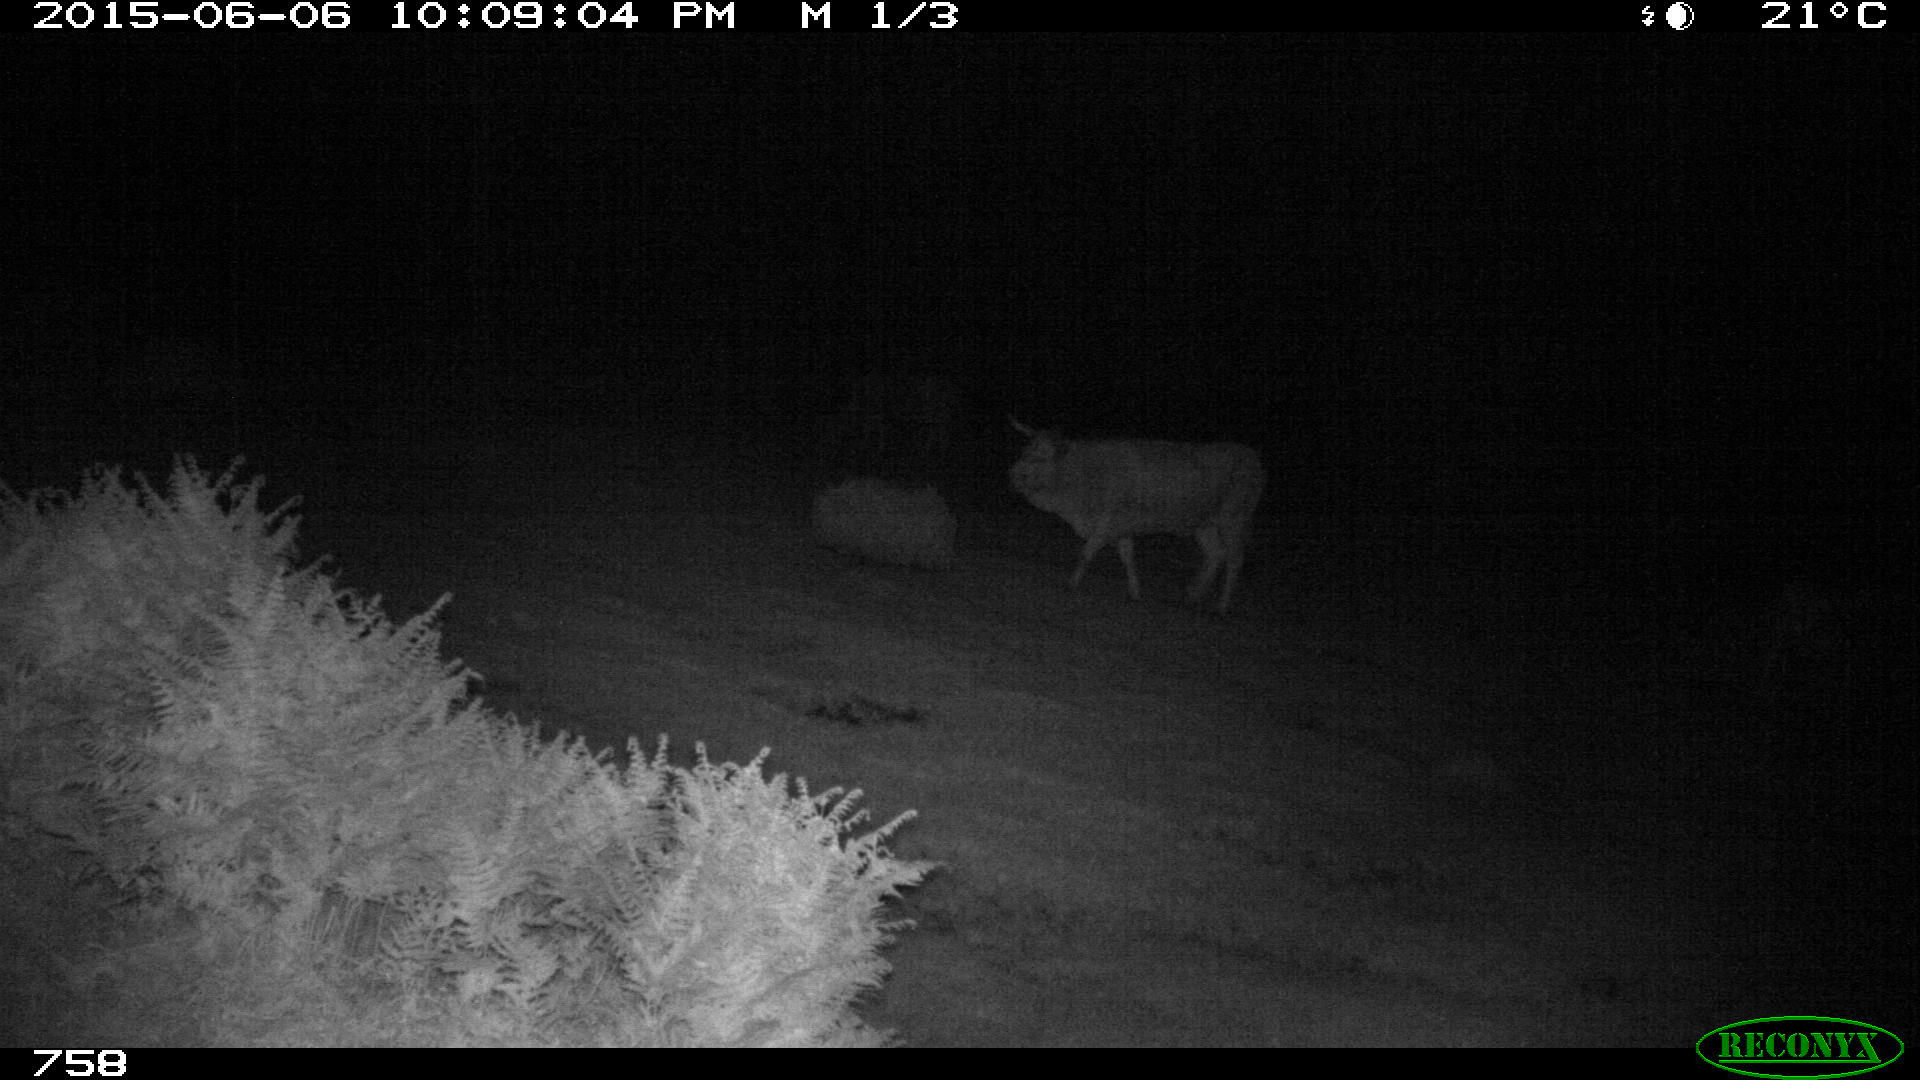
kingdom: Animalia
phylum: Chordata
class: Mammalia
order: Artiodactyla
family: Bovidae
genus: Bos
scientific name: Bos taurus
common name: Domesticated cattle
